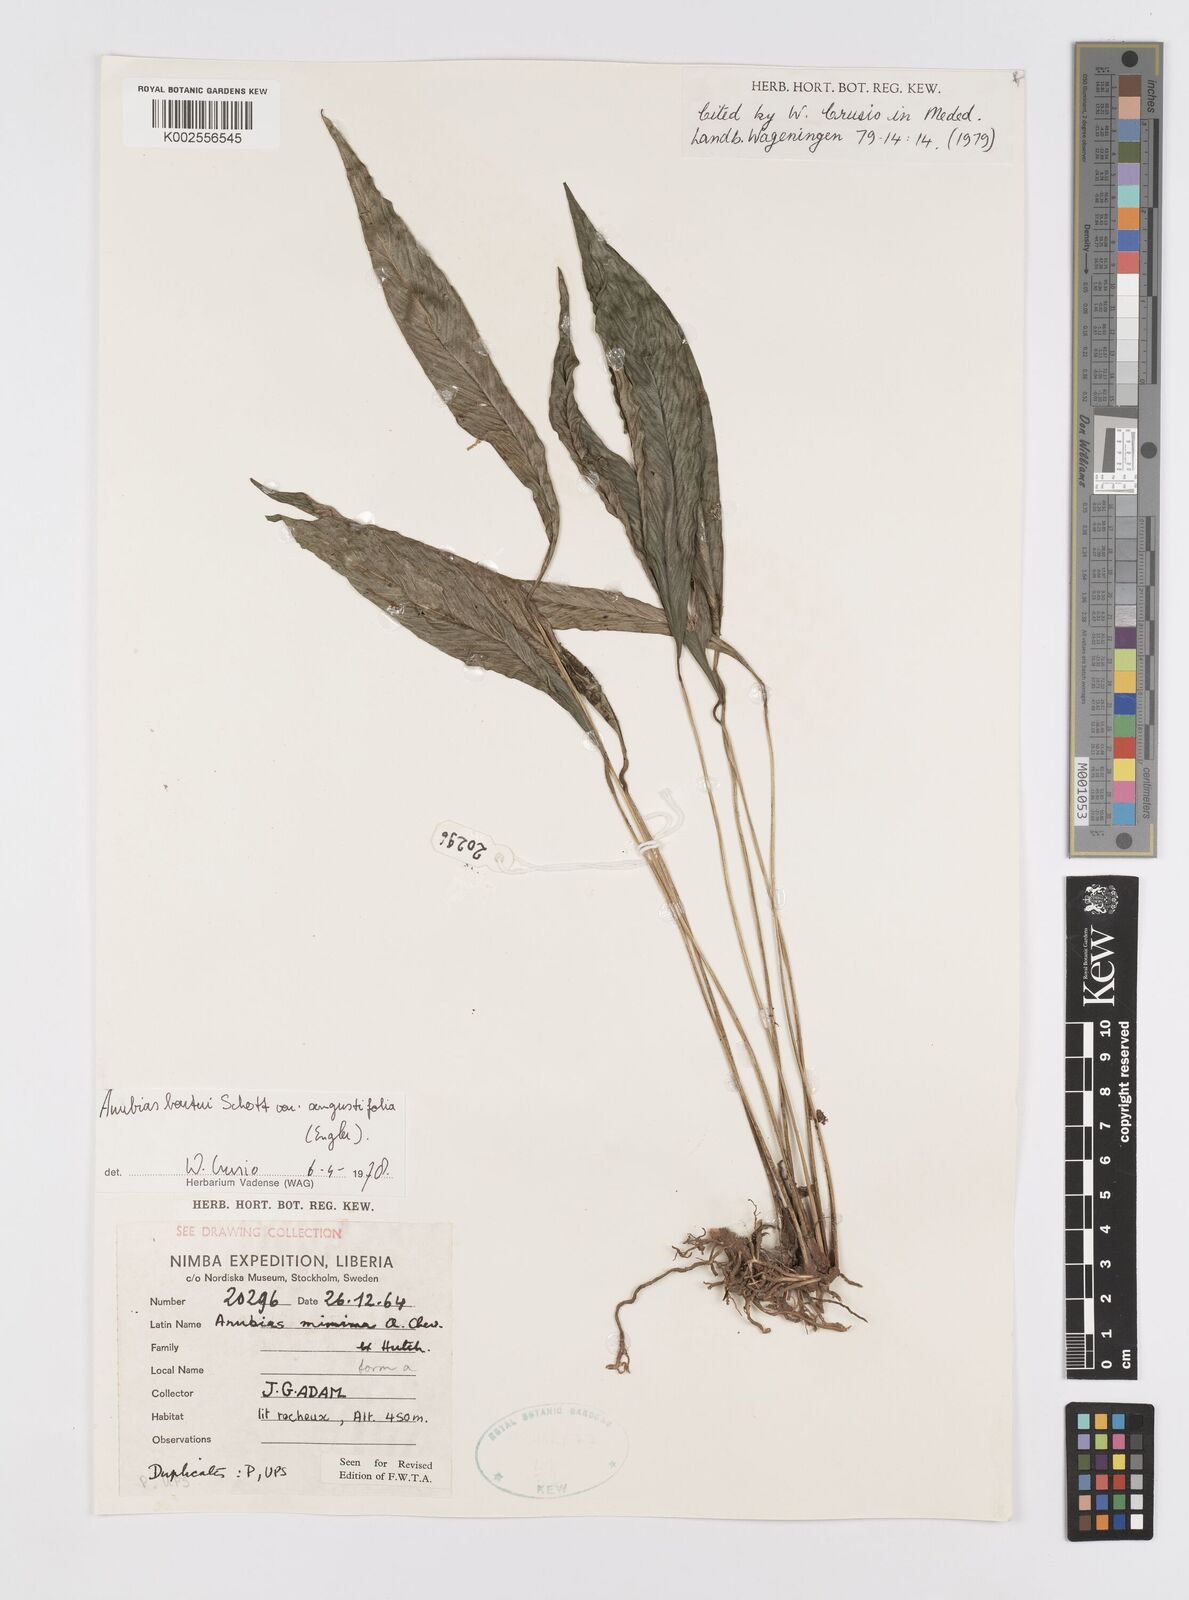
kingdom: Plantae
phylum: Tracheophyta
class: Liliopsida
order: Alismatales
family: Araceae
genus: Anubias
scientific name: Anubias barteri
